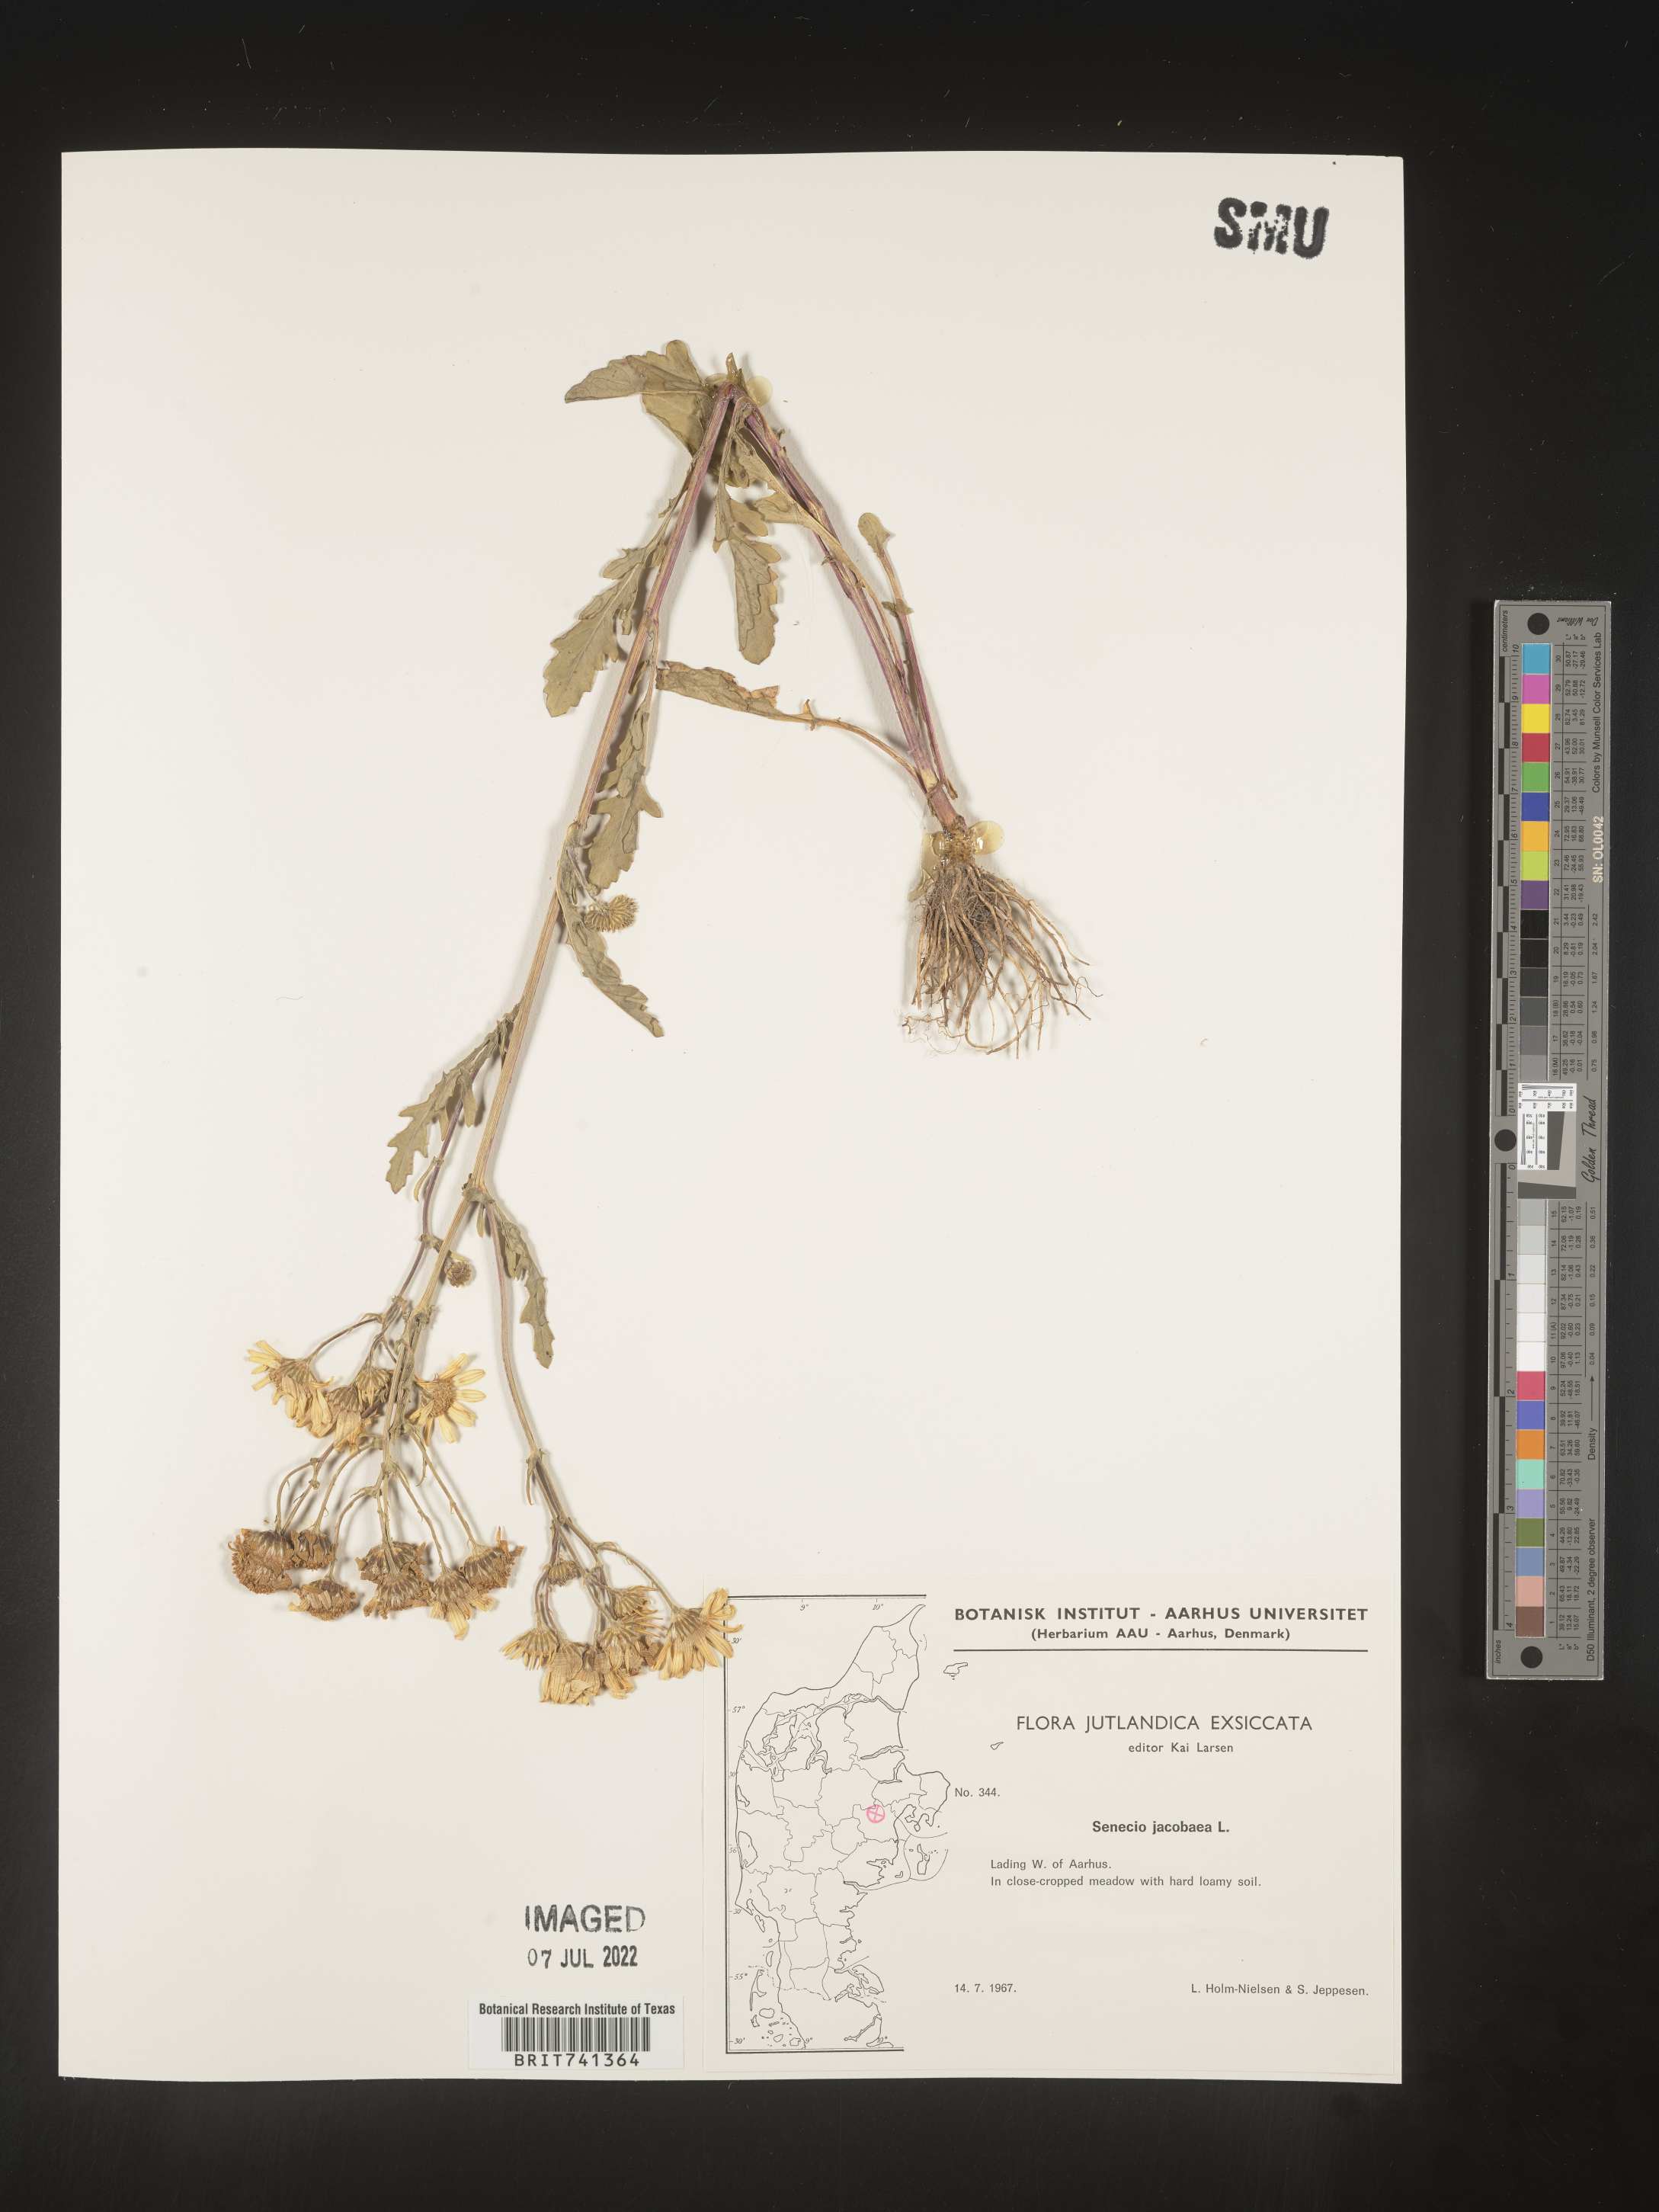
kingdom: Plantae
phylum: Tracheophyta
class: Magnoliopsida
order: Asterales
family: Asteraceae
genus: Senecio
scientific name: Senecio
